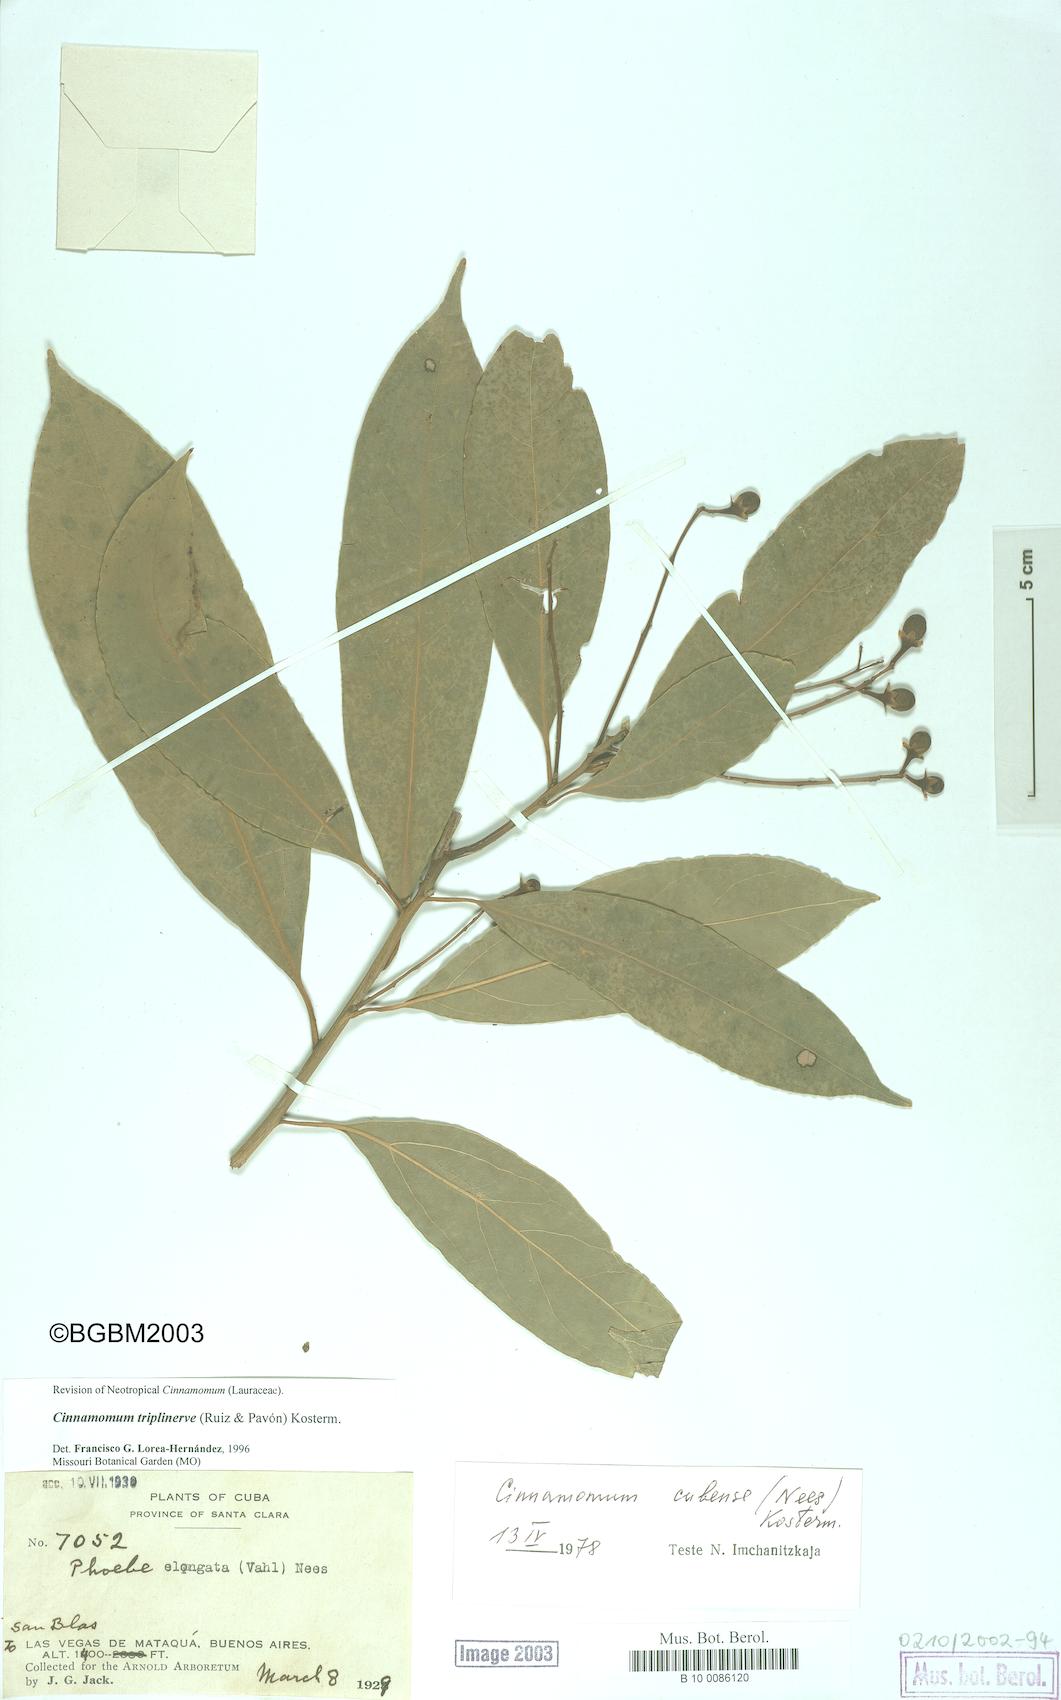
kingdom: Plantae
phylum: Tracheophyta
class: Magnoliopsida
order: Laurales
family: Lauraceae
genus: Aiouea
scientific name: Aiouea montana
